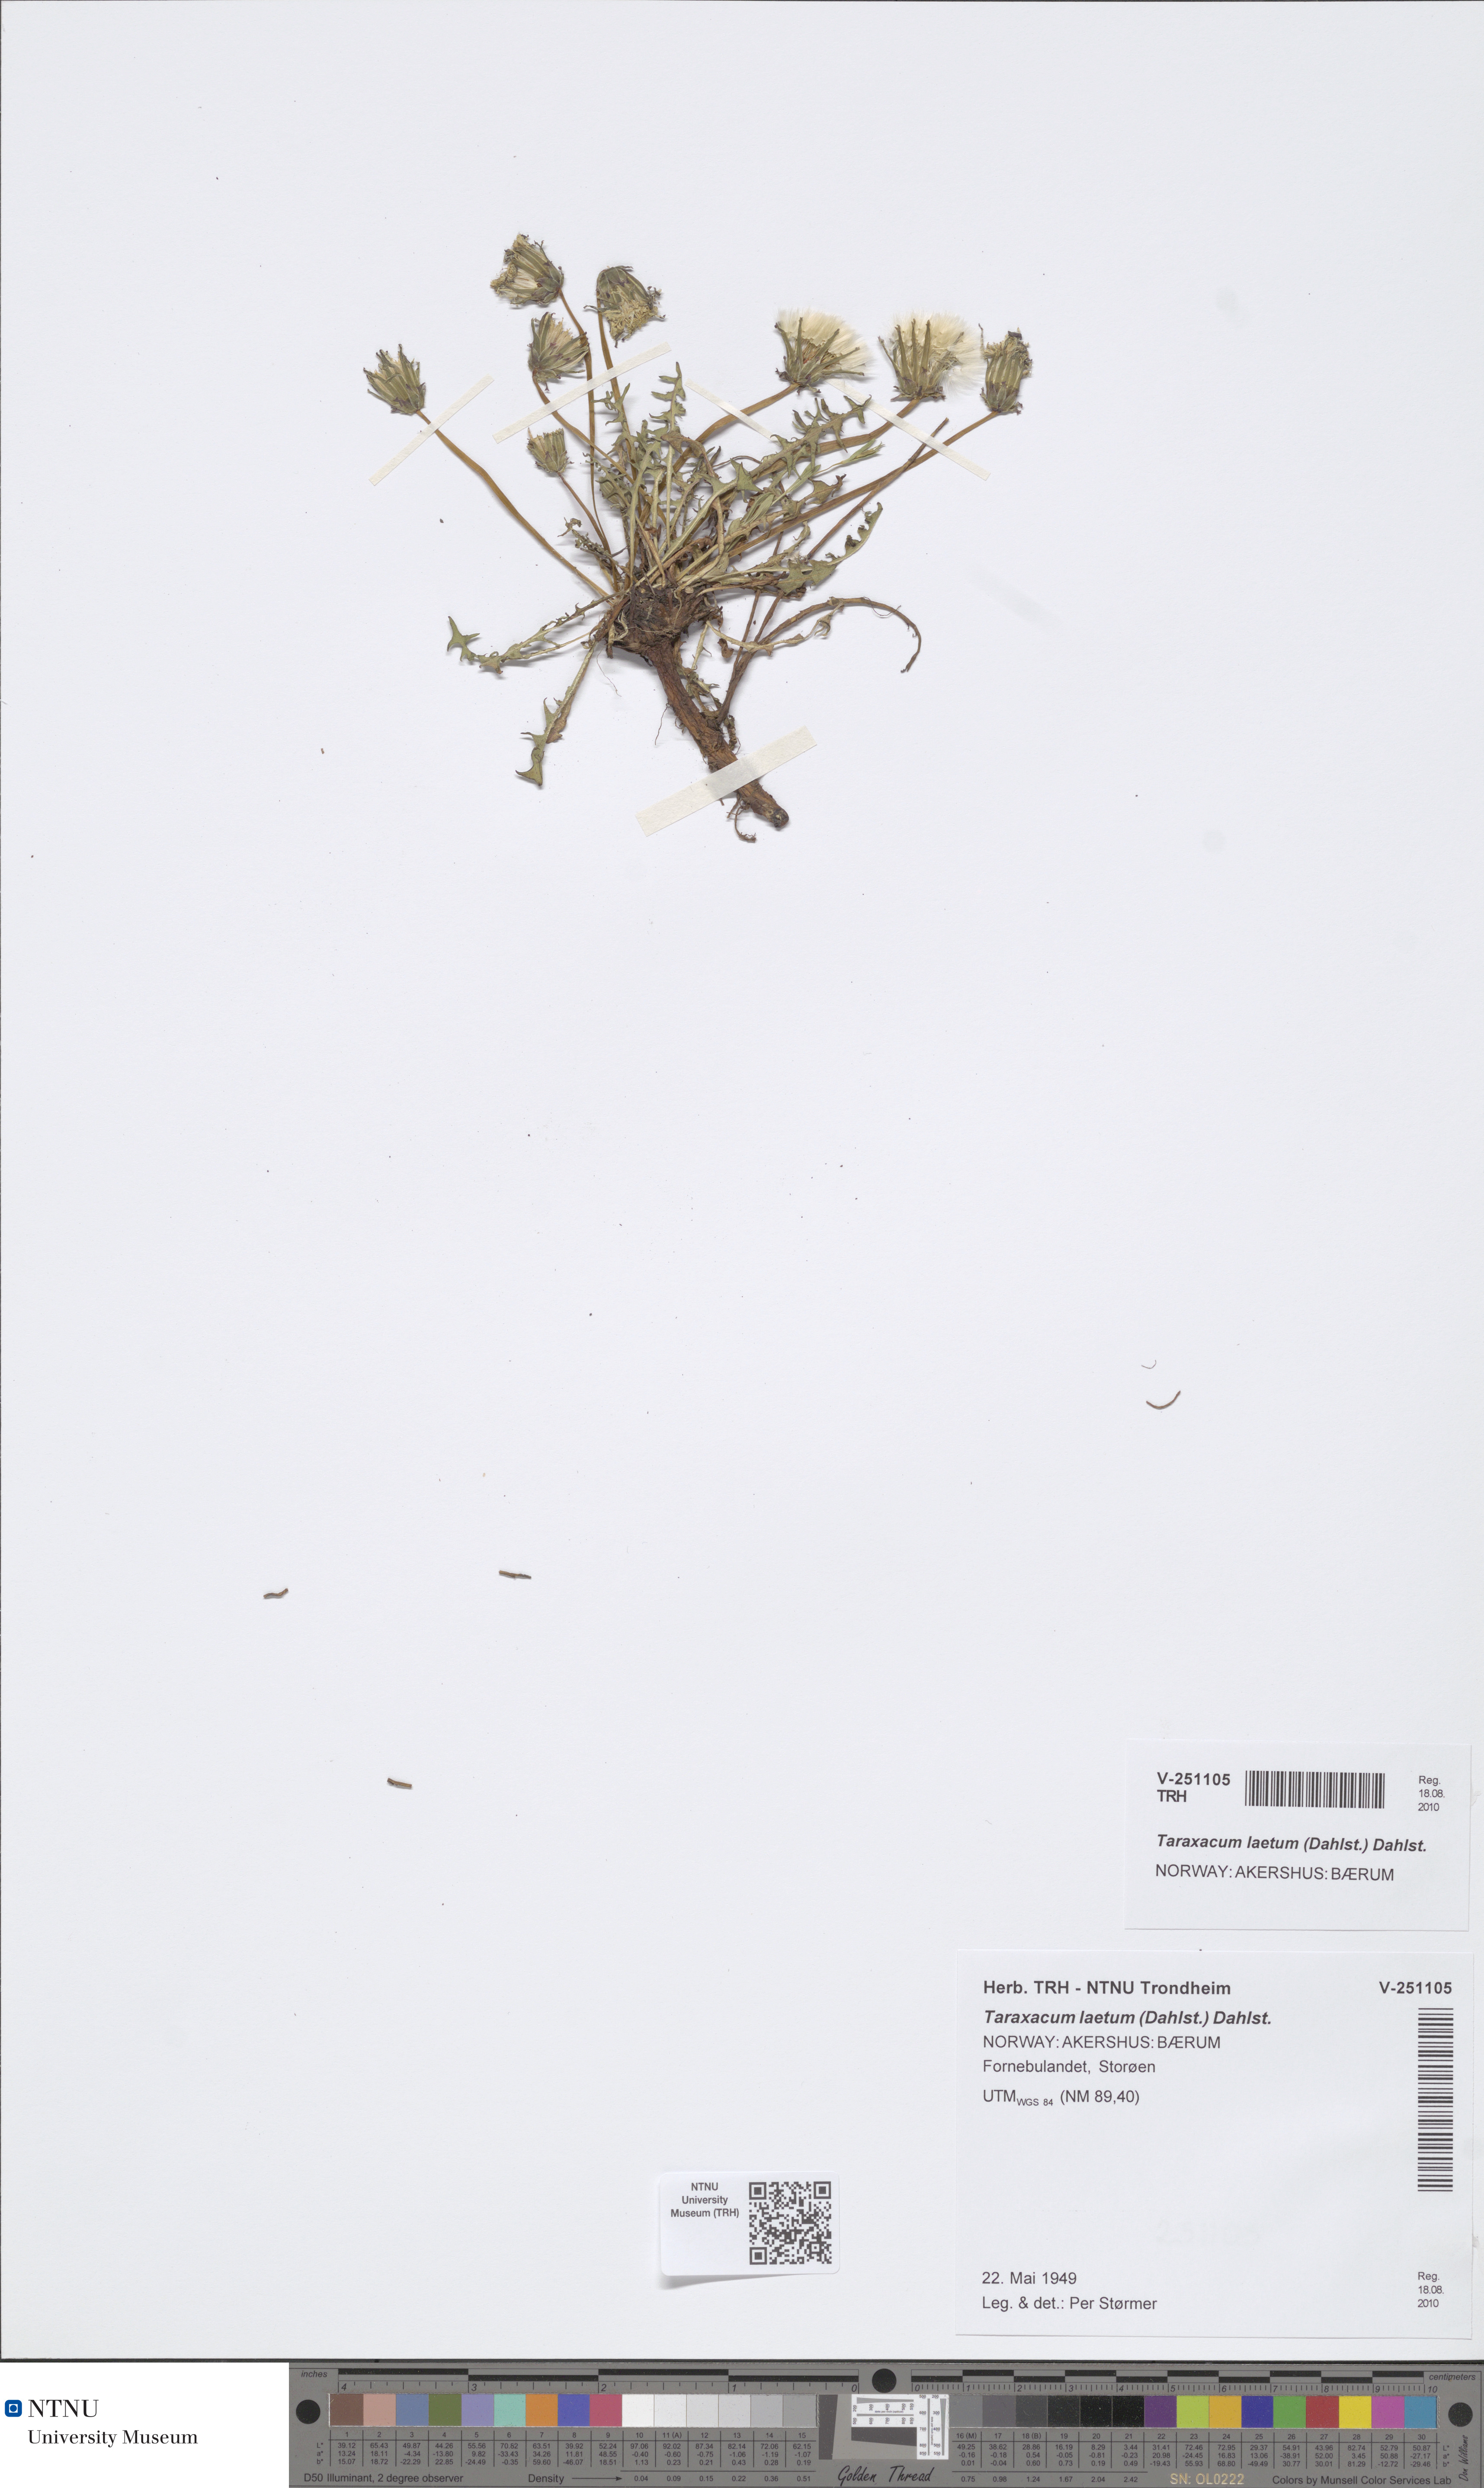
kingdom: Plantae
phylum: Tracheophyta
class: Magnoliopsida
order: Asterales
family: Asteraceae
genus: Taraxacum
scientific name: Taraxacum laetum
